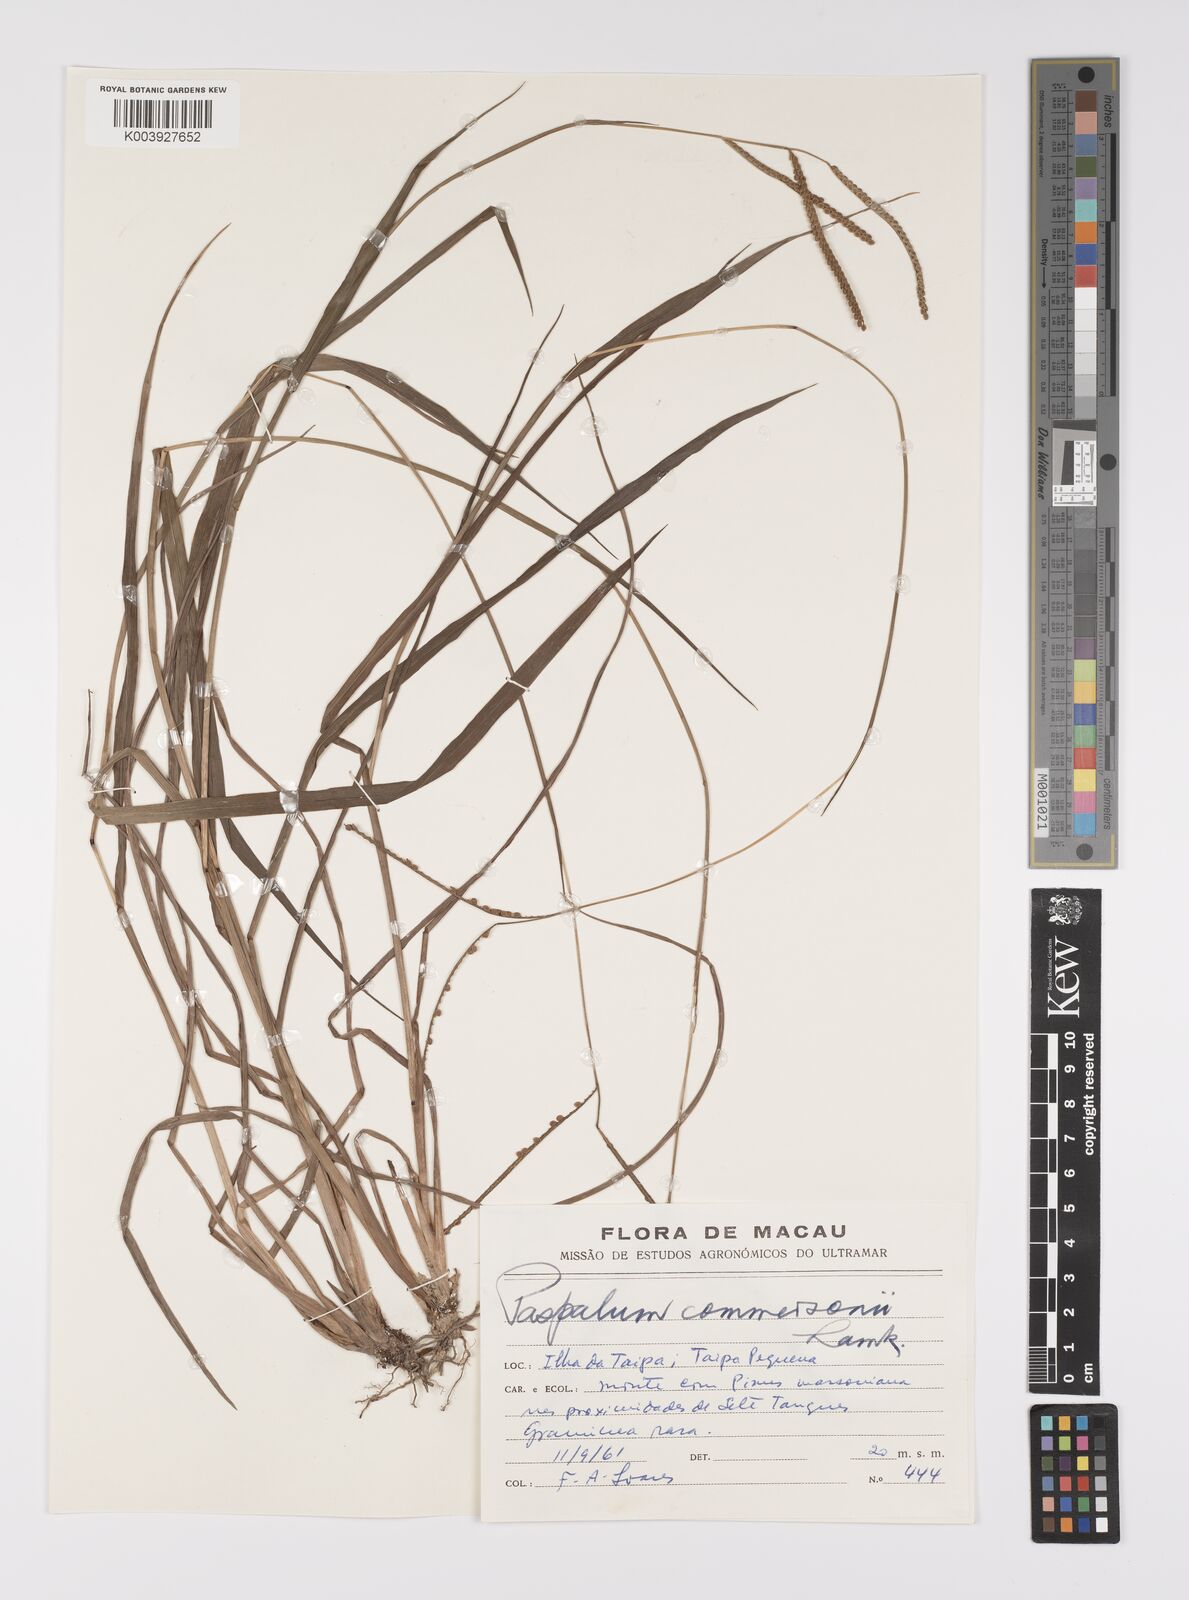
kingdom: Plantae
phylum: Tracheophyta
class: Liliopsida
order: Poales
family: Poaceae
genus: Paspalum
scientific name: Paspalum scrobiculatum
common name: Kodo millet
